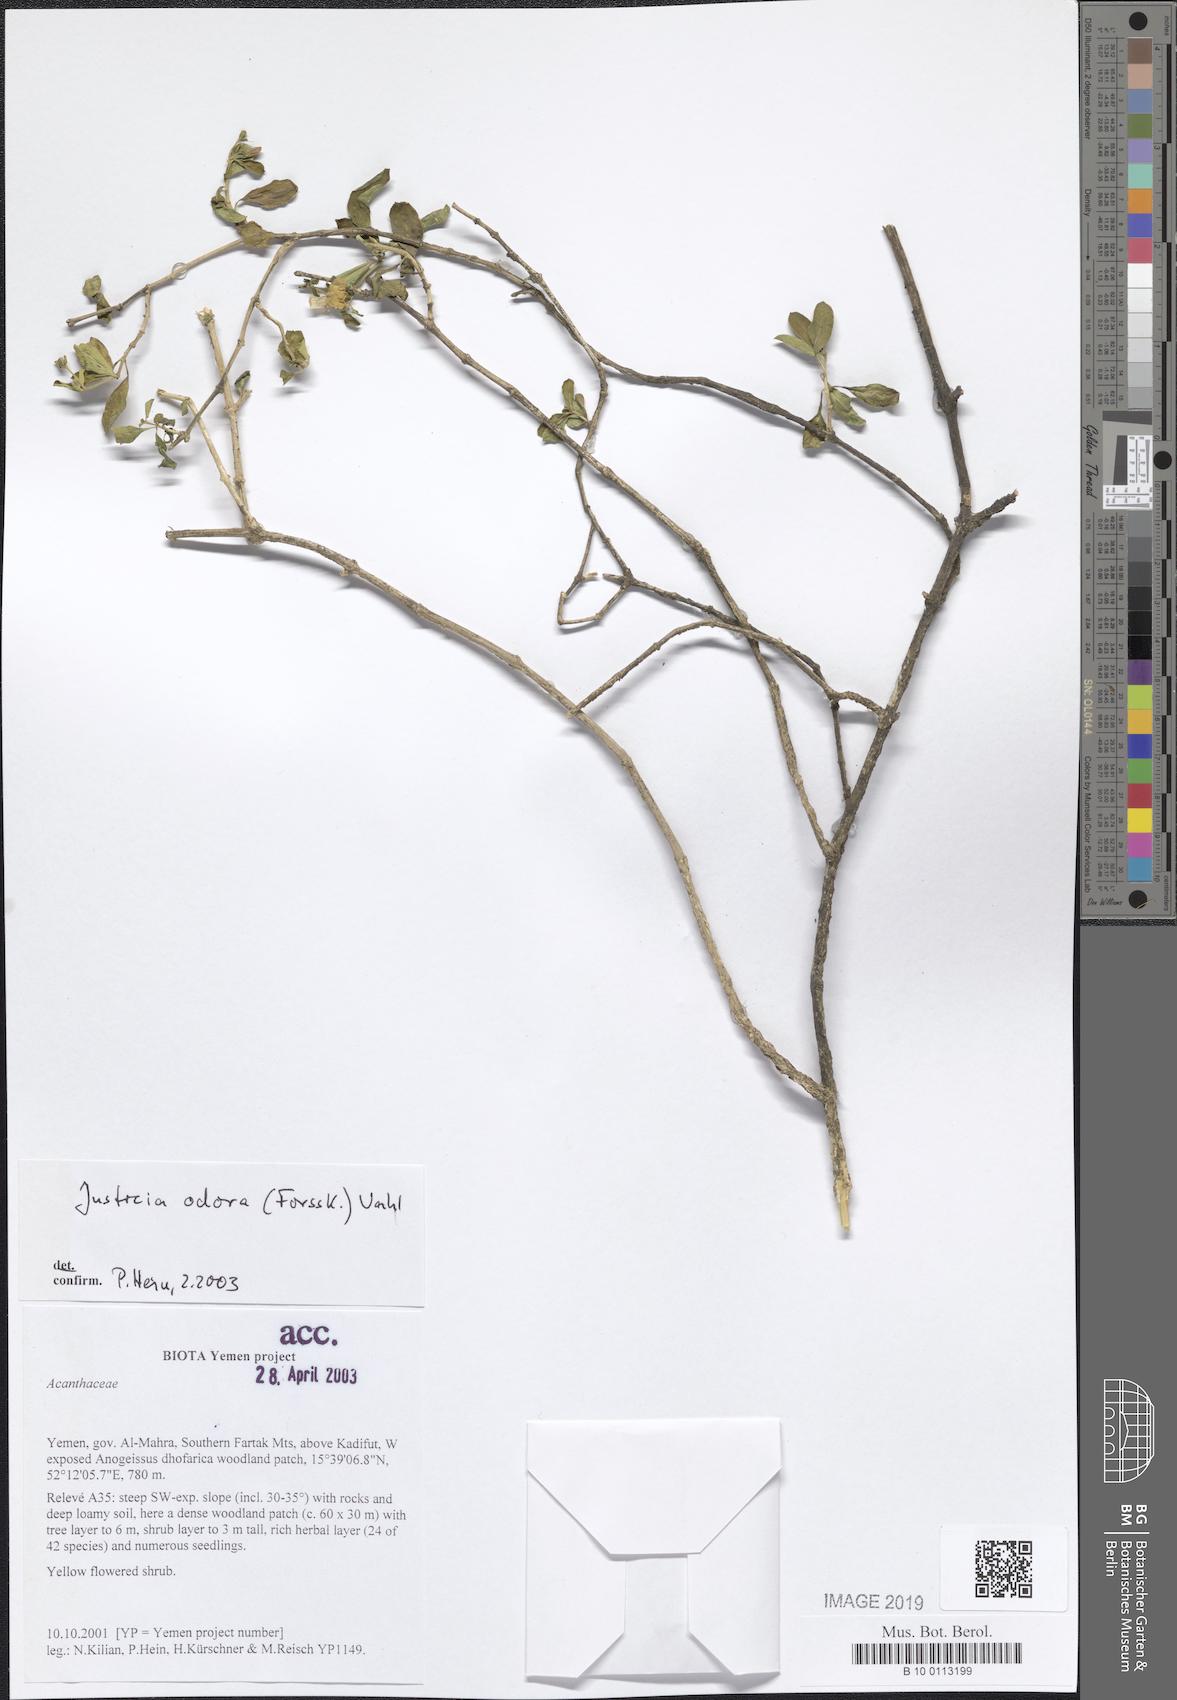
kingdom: Plantae
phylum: Tracheophyta
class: Magnoliopsida
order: Lamiales
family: Acanthaceae
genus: Justicia
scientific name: Justicia odora
